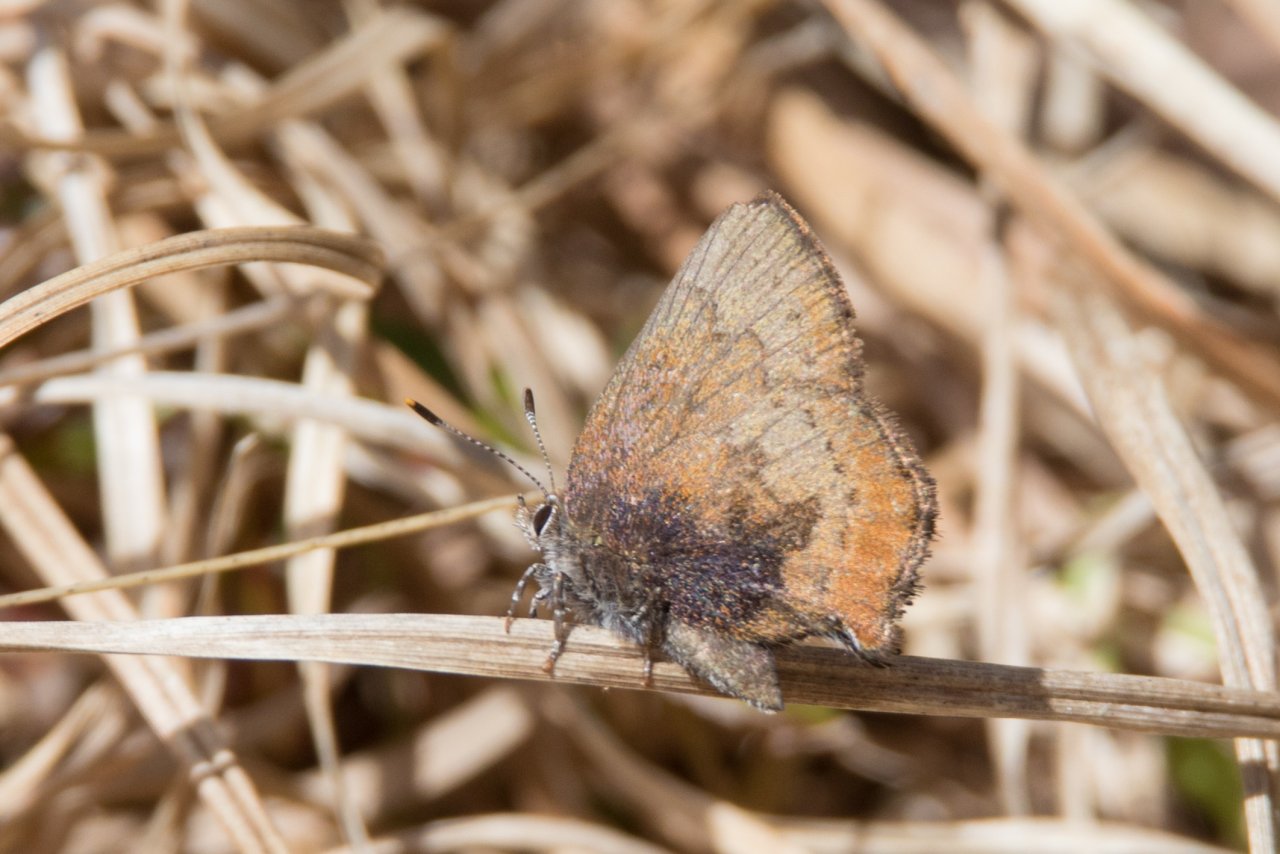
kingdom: Animalia
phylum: Arthropoda
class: Insecta
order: Lepidoptera
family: Lycaenidae
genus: Incisalia
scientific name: Incisalia irioides
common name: Brown Elfin
